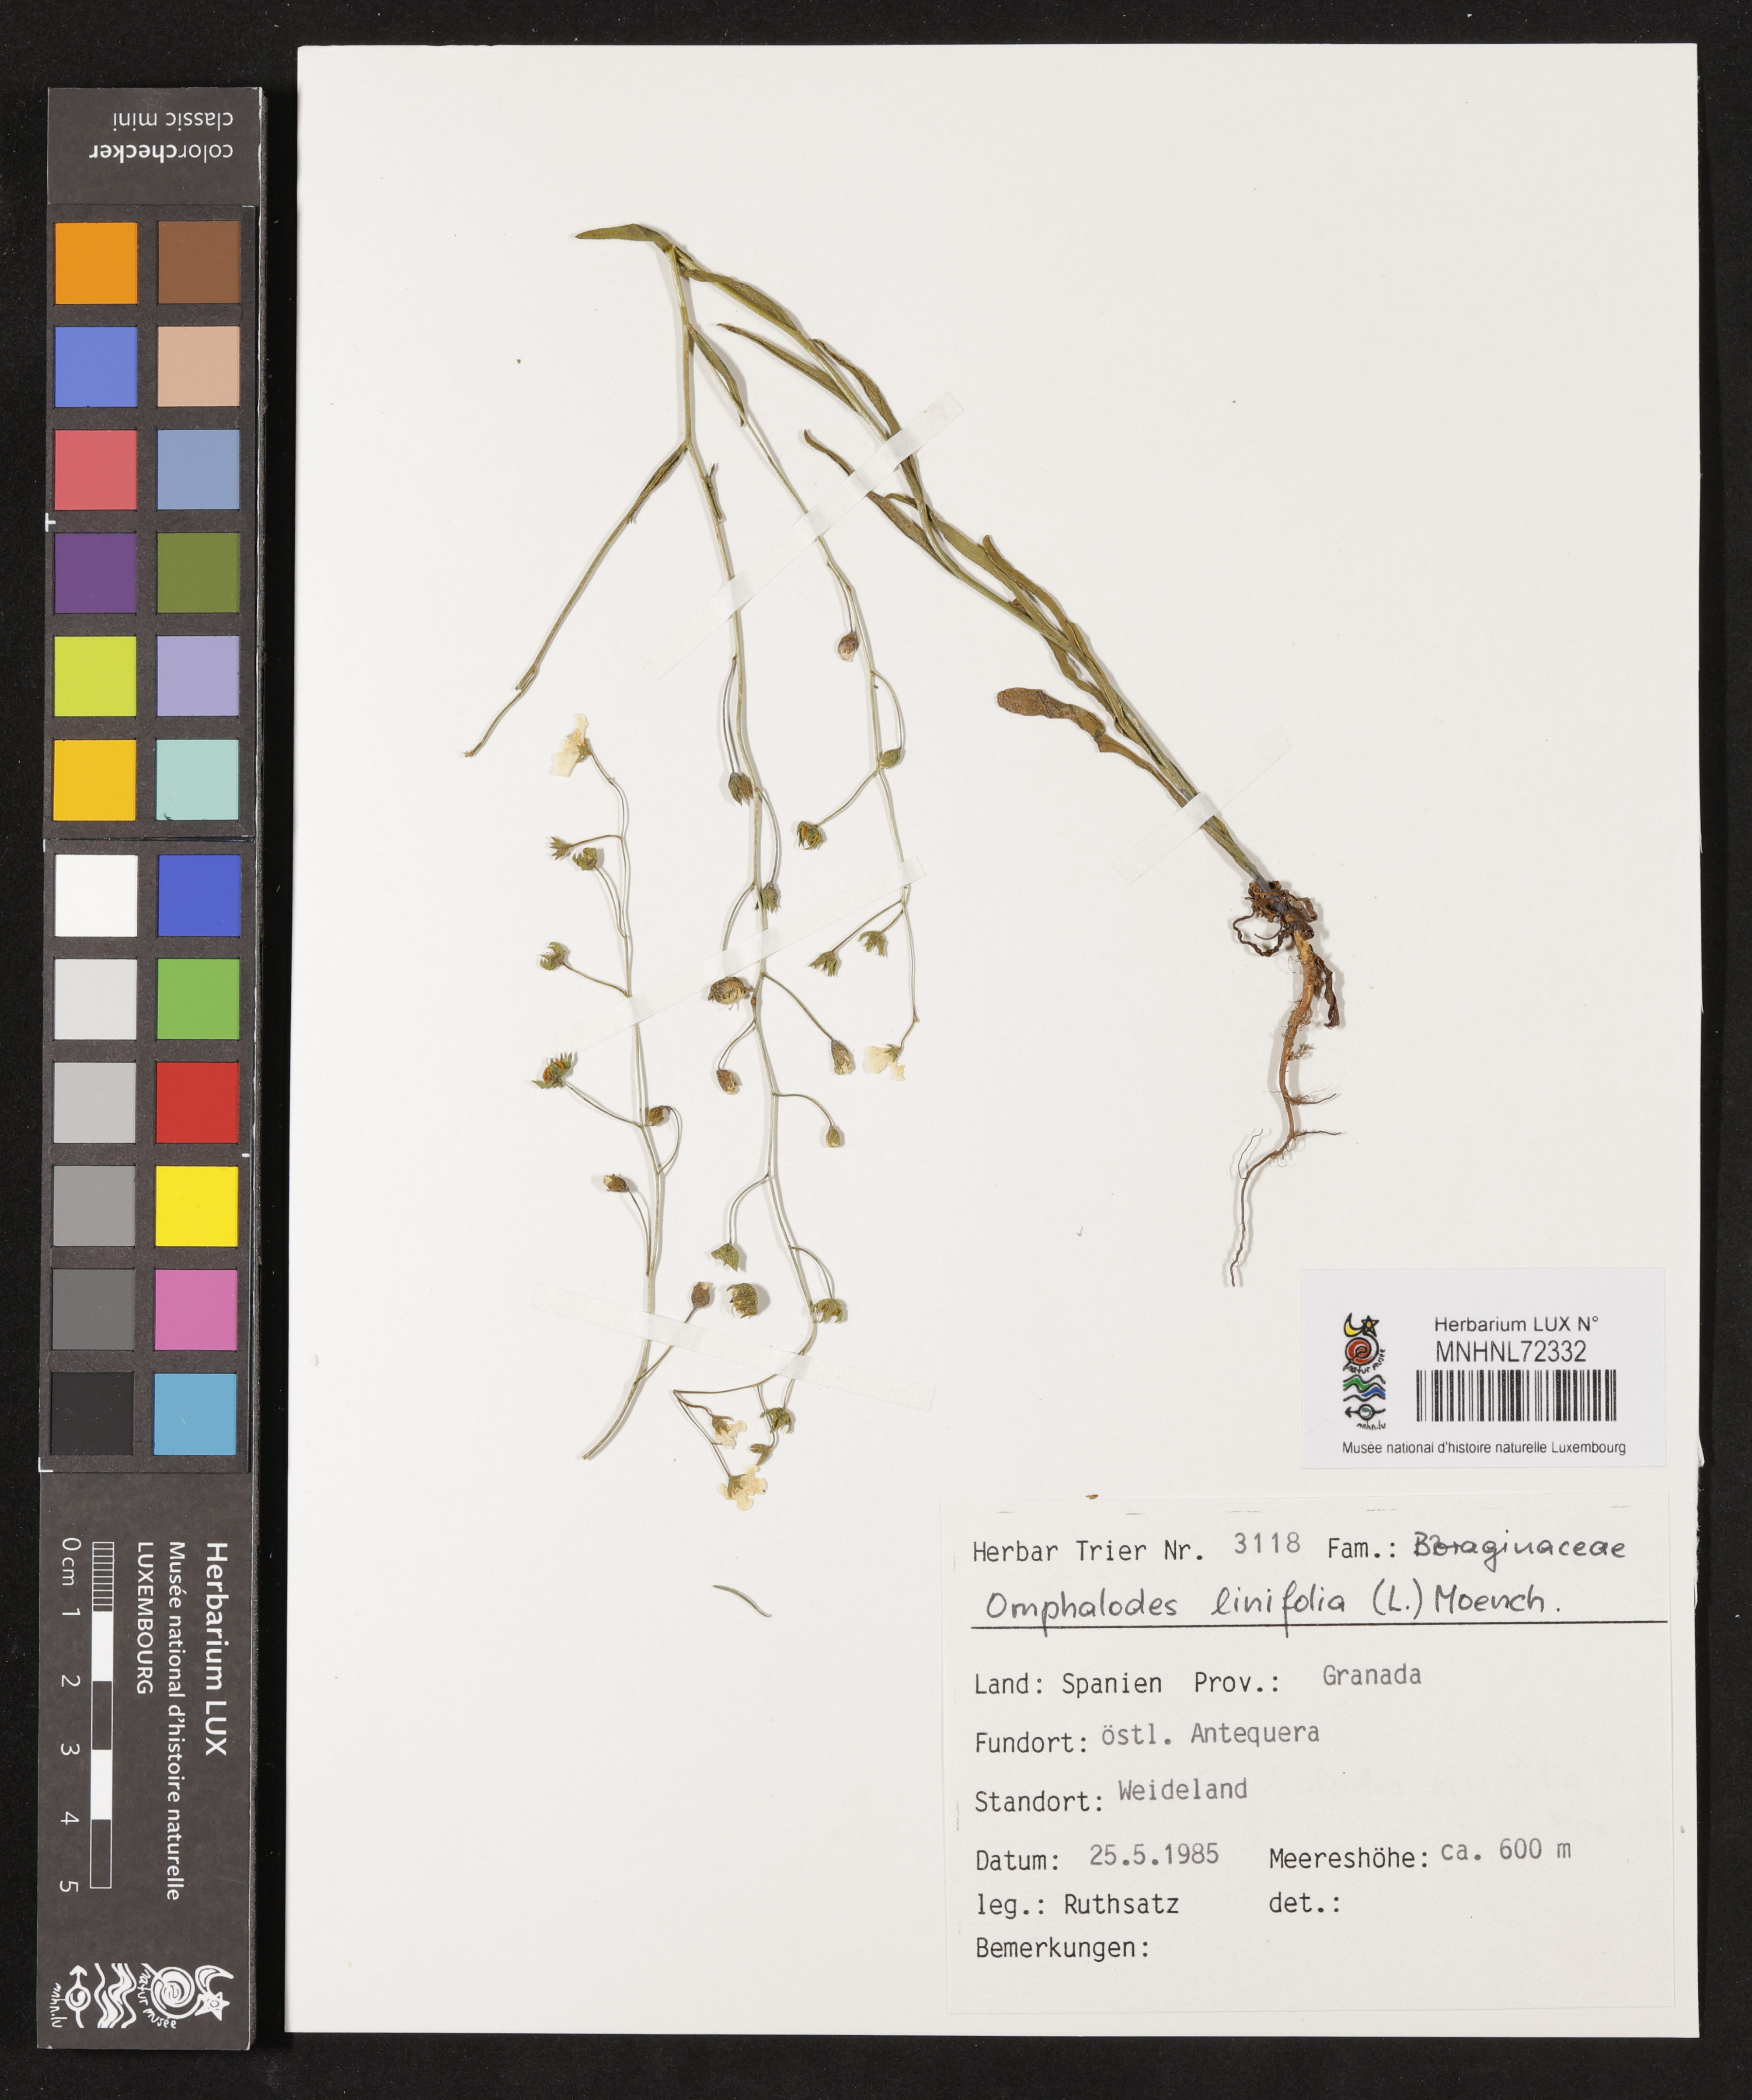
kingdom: Plantae
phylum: Tracheophyta
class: Magnoliopsida
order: Boraginales
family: Boraginaceae
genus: Iberodes
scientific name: Iberodes linifolia
